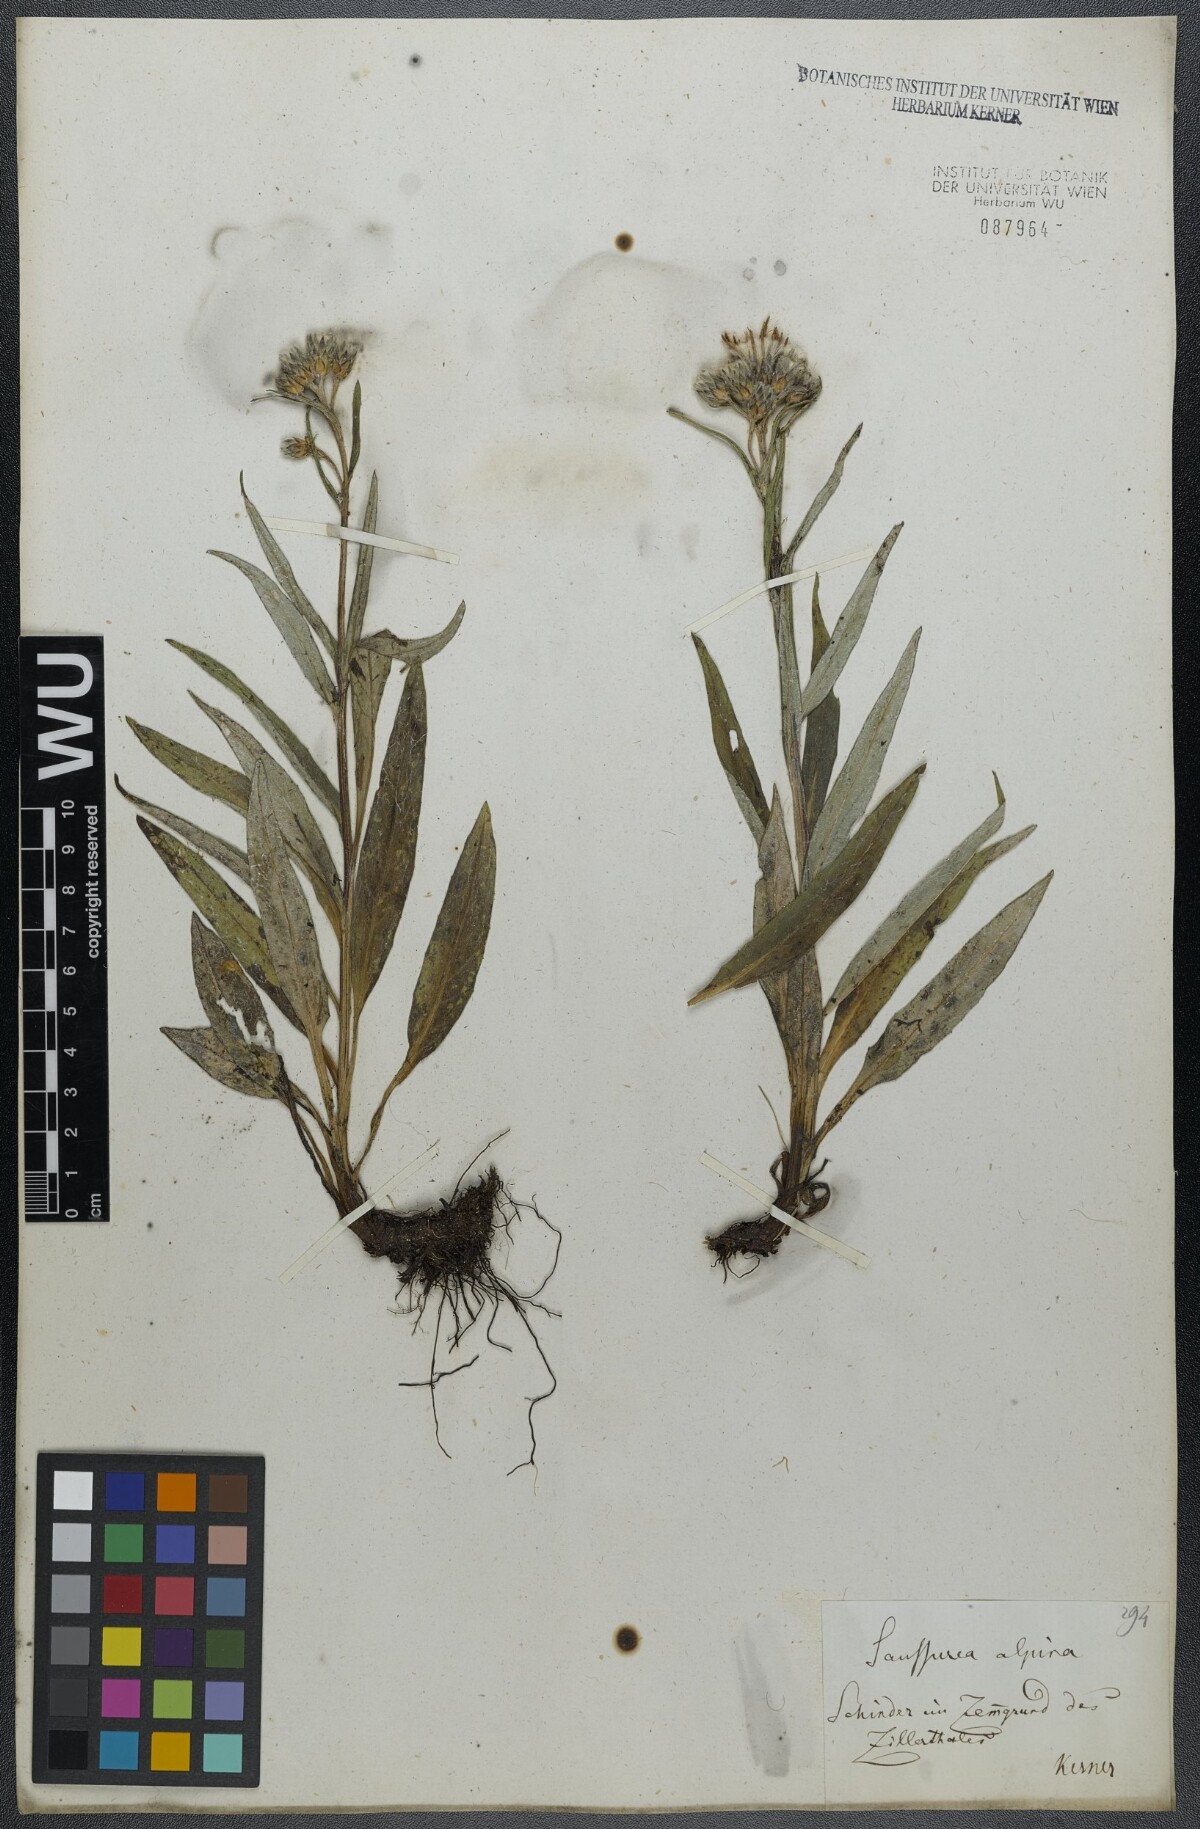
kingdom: Plantae
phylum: Tracheophyta
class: Magnoliopsida
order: Asterales
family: Asteraceae
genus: Saussurea
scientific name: Saussurea alpina
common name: Alpine saw-wort
